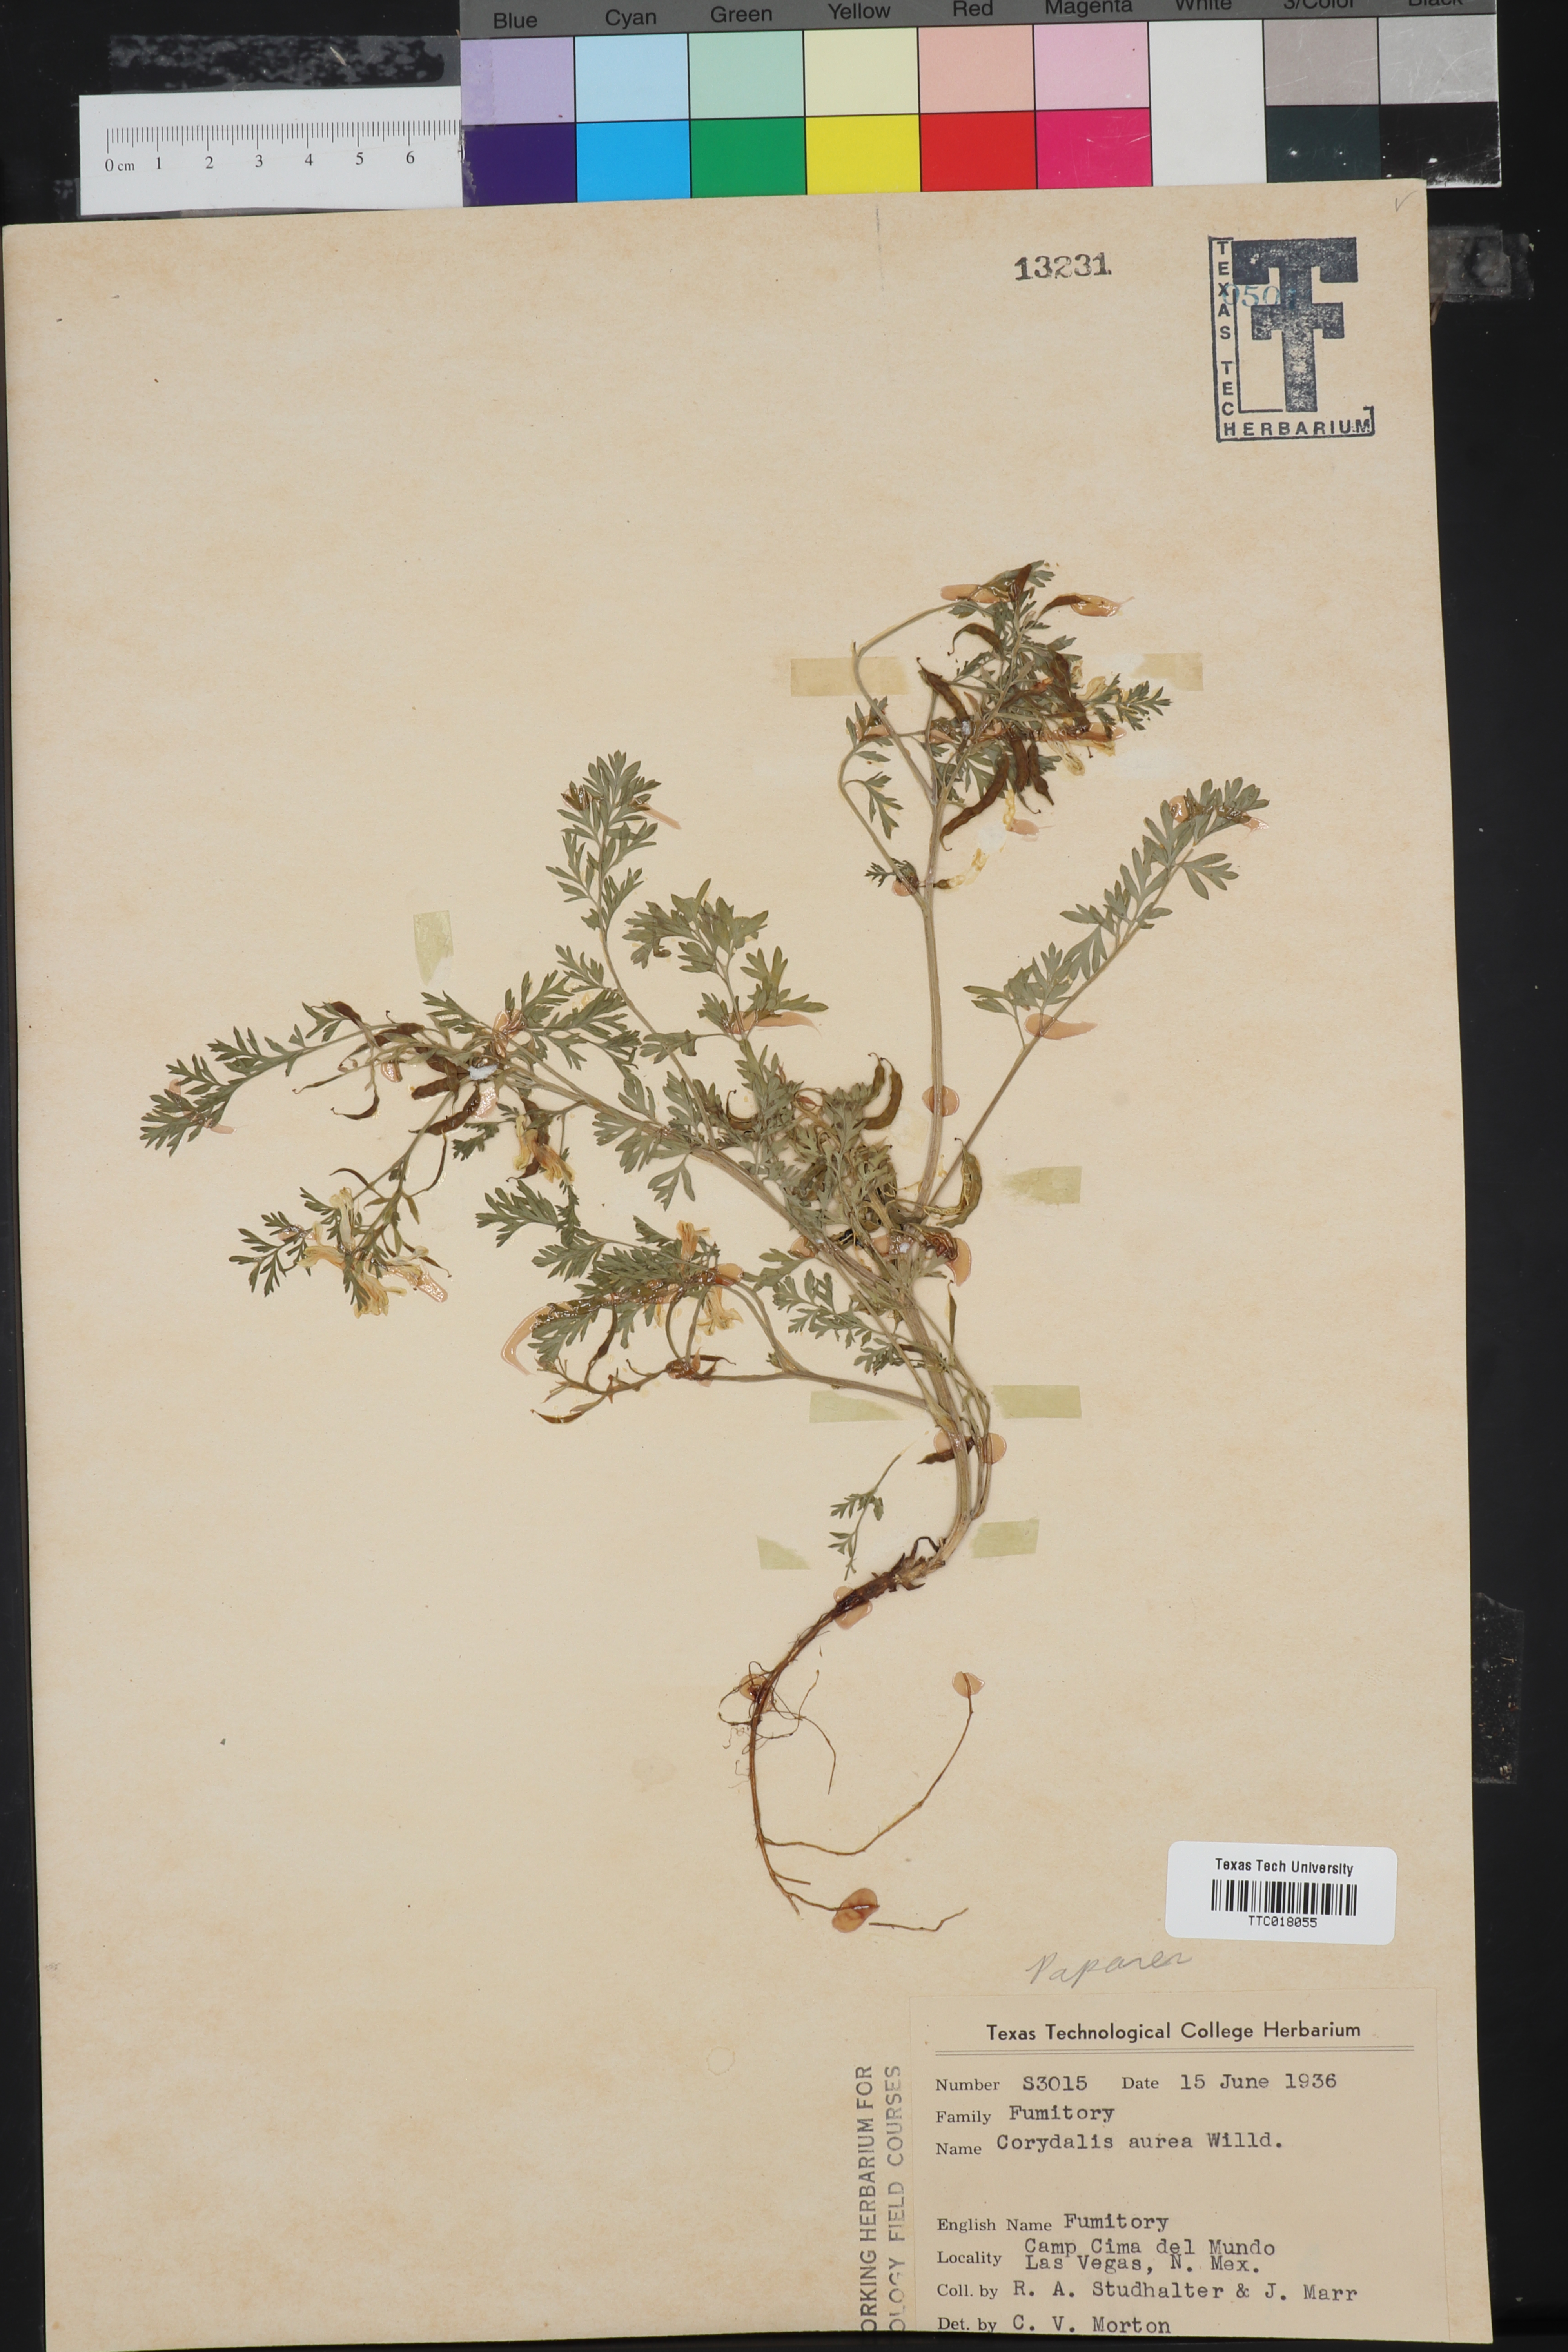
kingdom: Plantae
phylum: Tracheophyta
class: Magnoliopsida
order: Ranunculales
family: Papaveraceae
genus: Corydalis
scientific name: Corydalis aurea
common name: Golden corydalis
